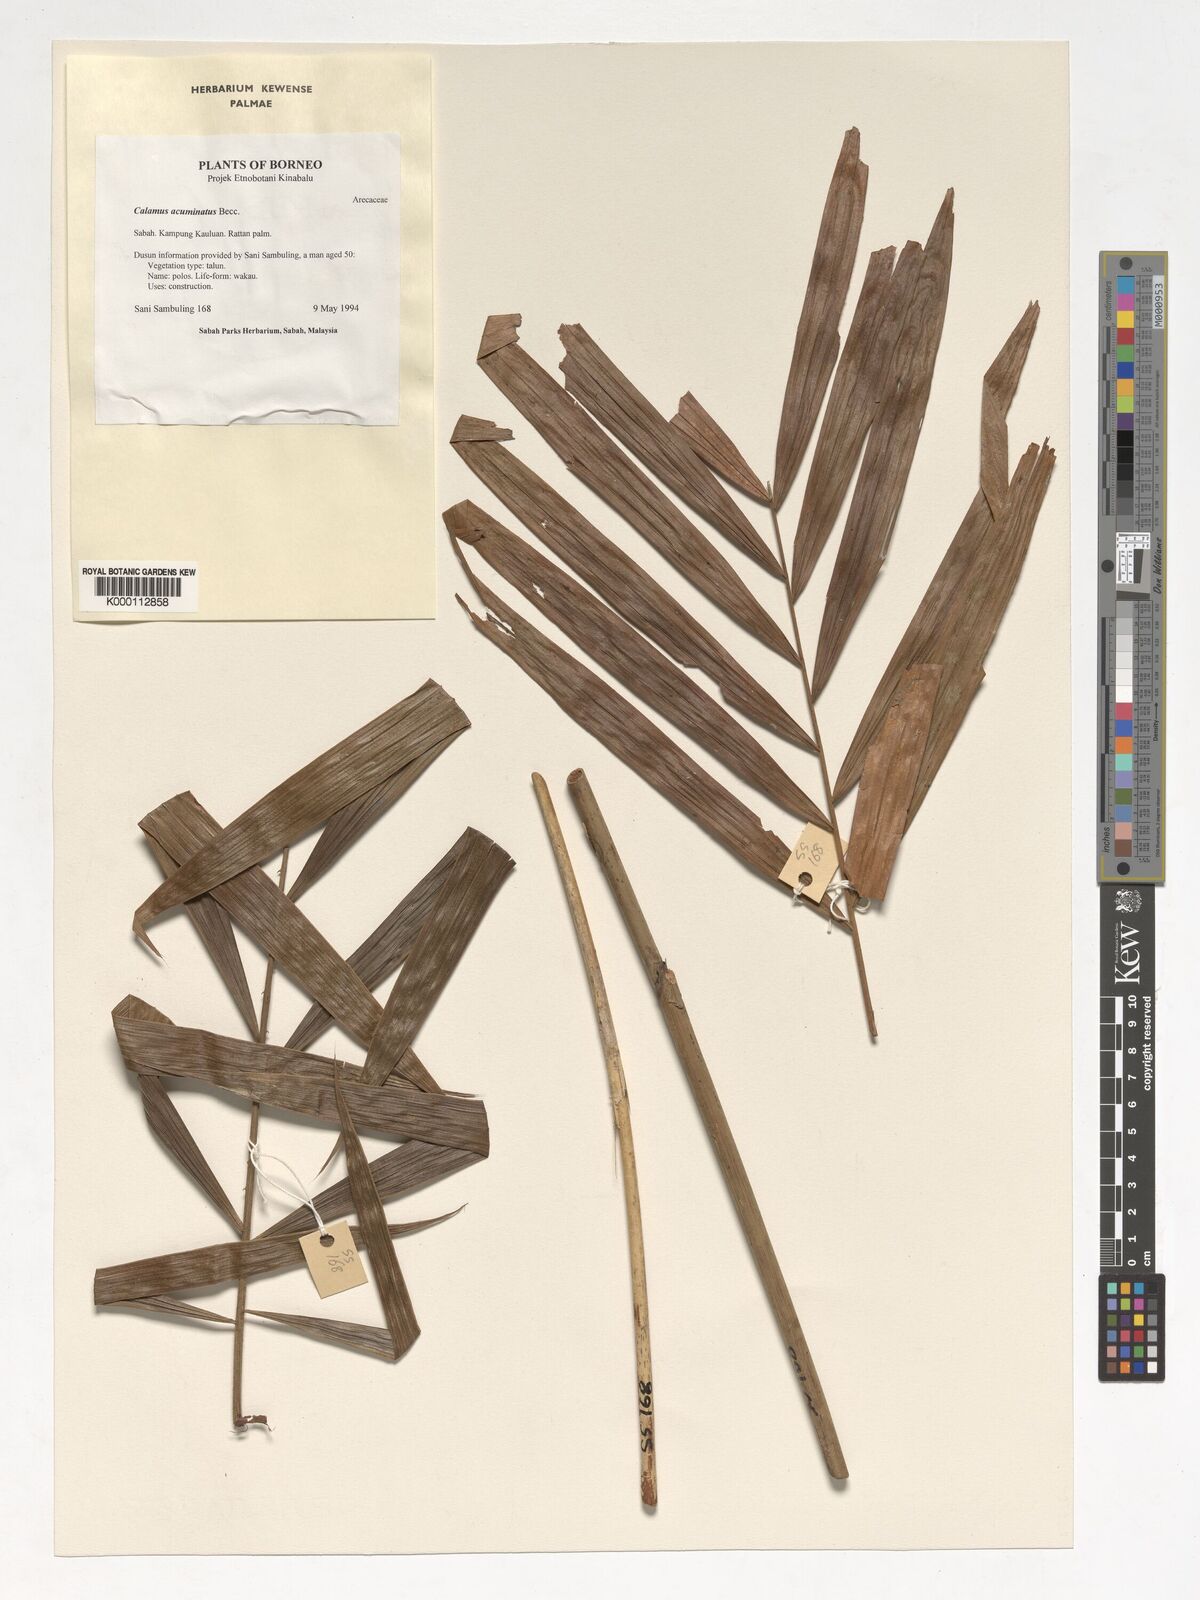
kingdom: Plantae
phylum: Tracheophyta
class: Liliopsida
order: Arecales
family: Arecaceae
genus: Calamus
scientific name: Calamus javensis
